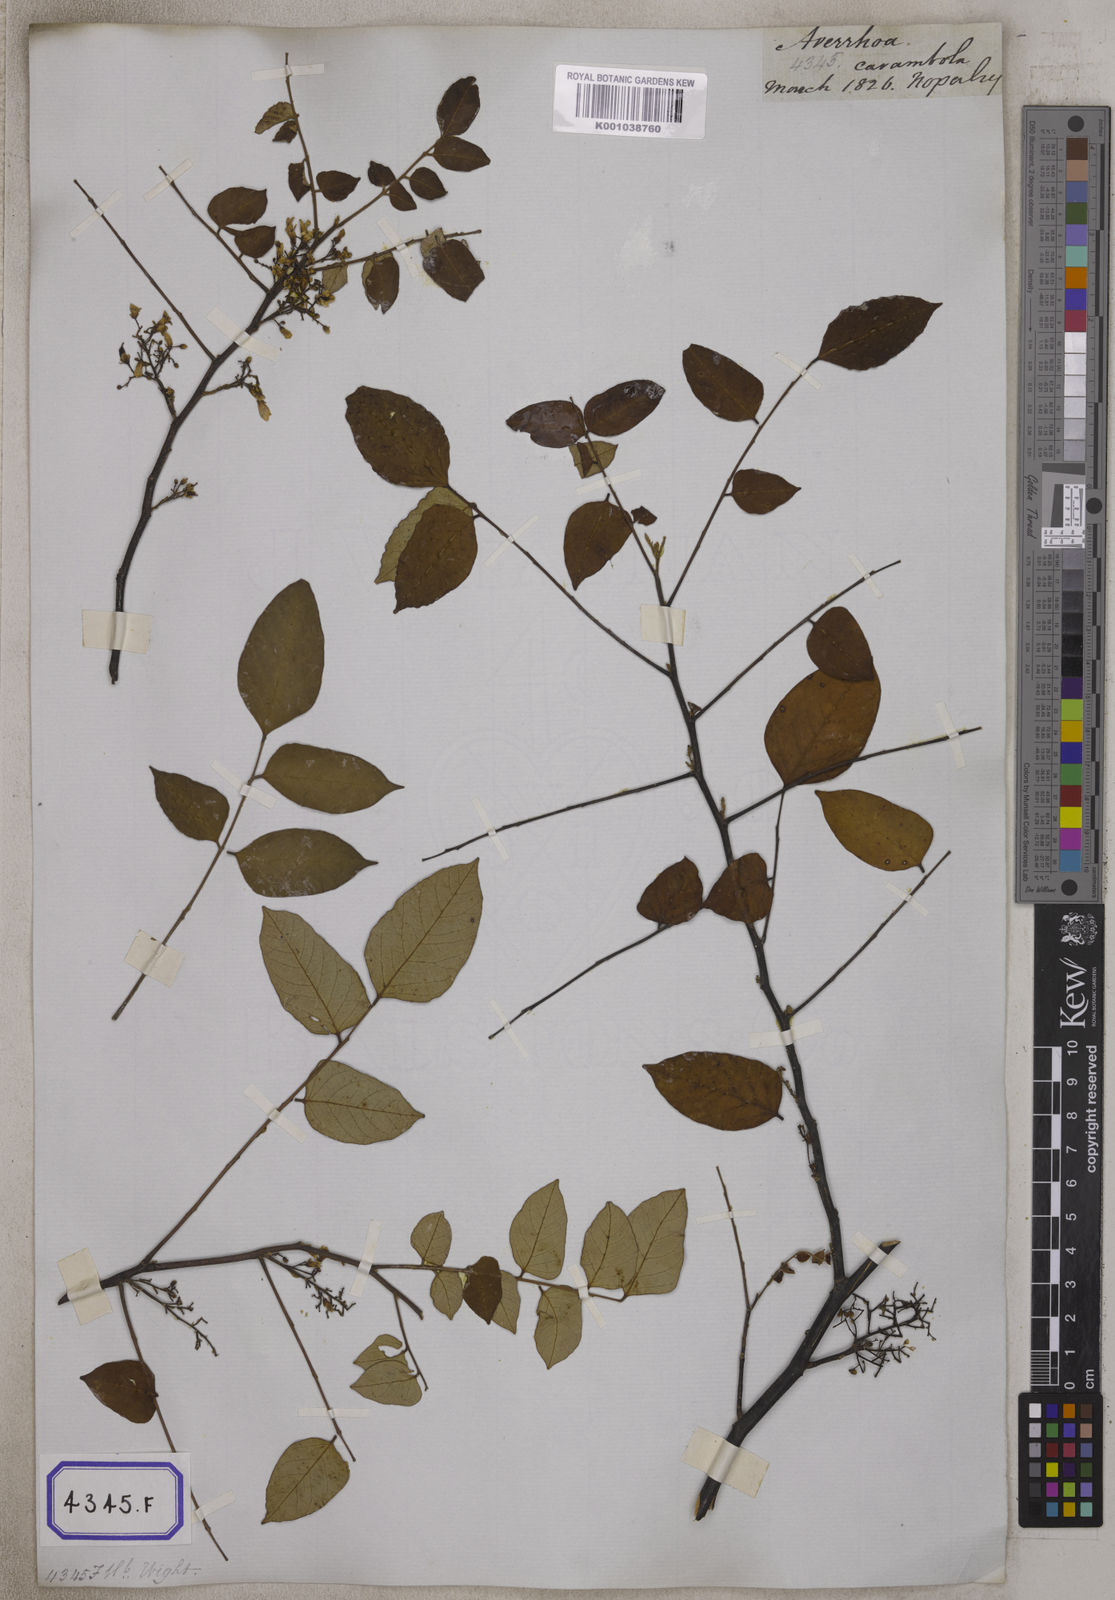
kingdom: Plantae
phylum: Tracheophyta
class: Magnoliopsida
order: Oxalidales
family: Oxalidaceae
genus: Averrhoa
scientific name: Averrhoa carambola
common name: Blimbing
